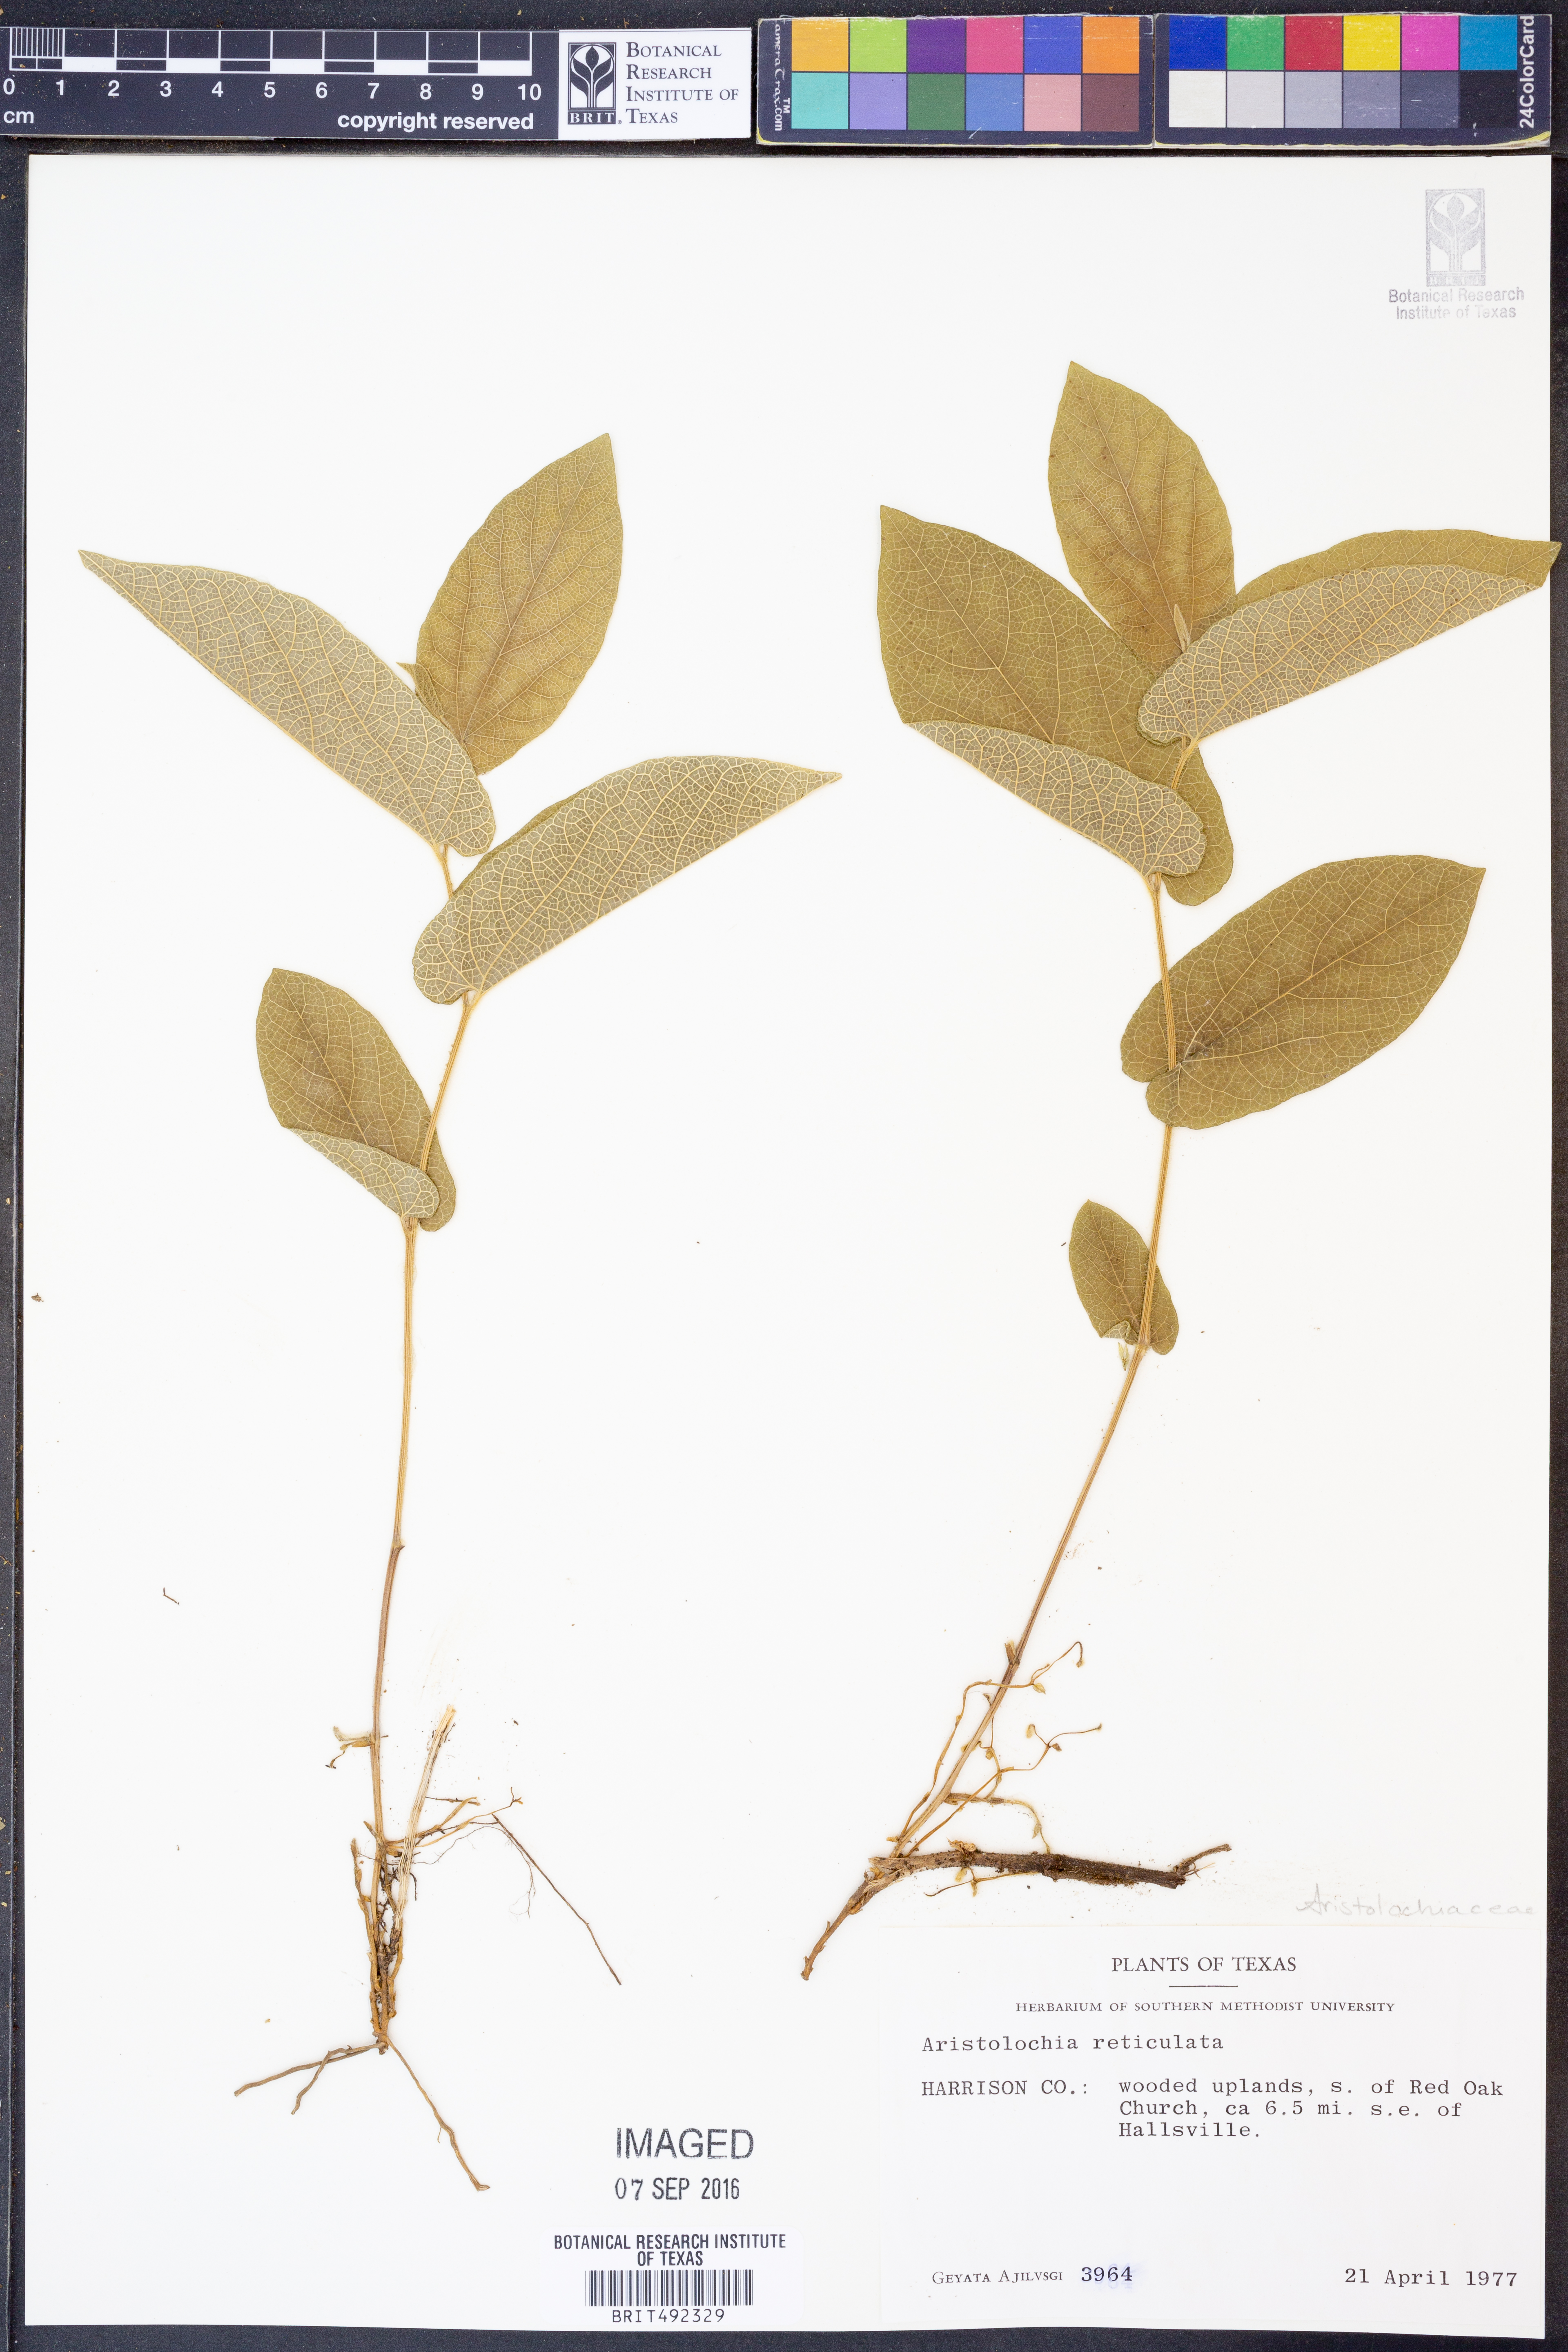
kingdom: Plantae
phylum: Tracheophyta
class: Magnoliopsida
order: Piperales
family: Aristolochiaceae
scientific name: Aristolochiaceae
